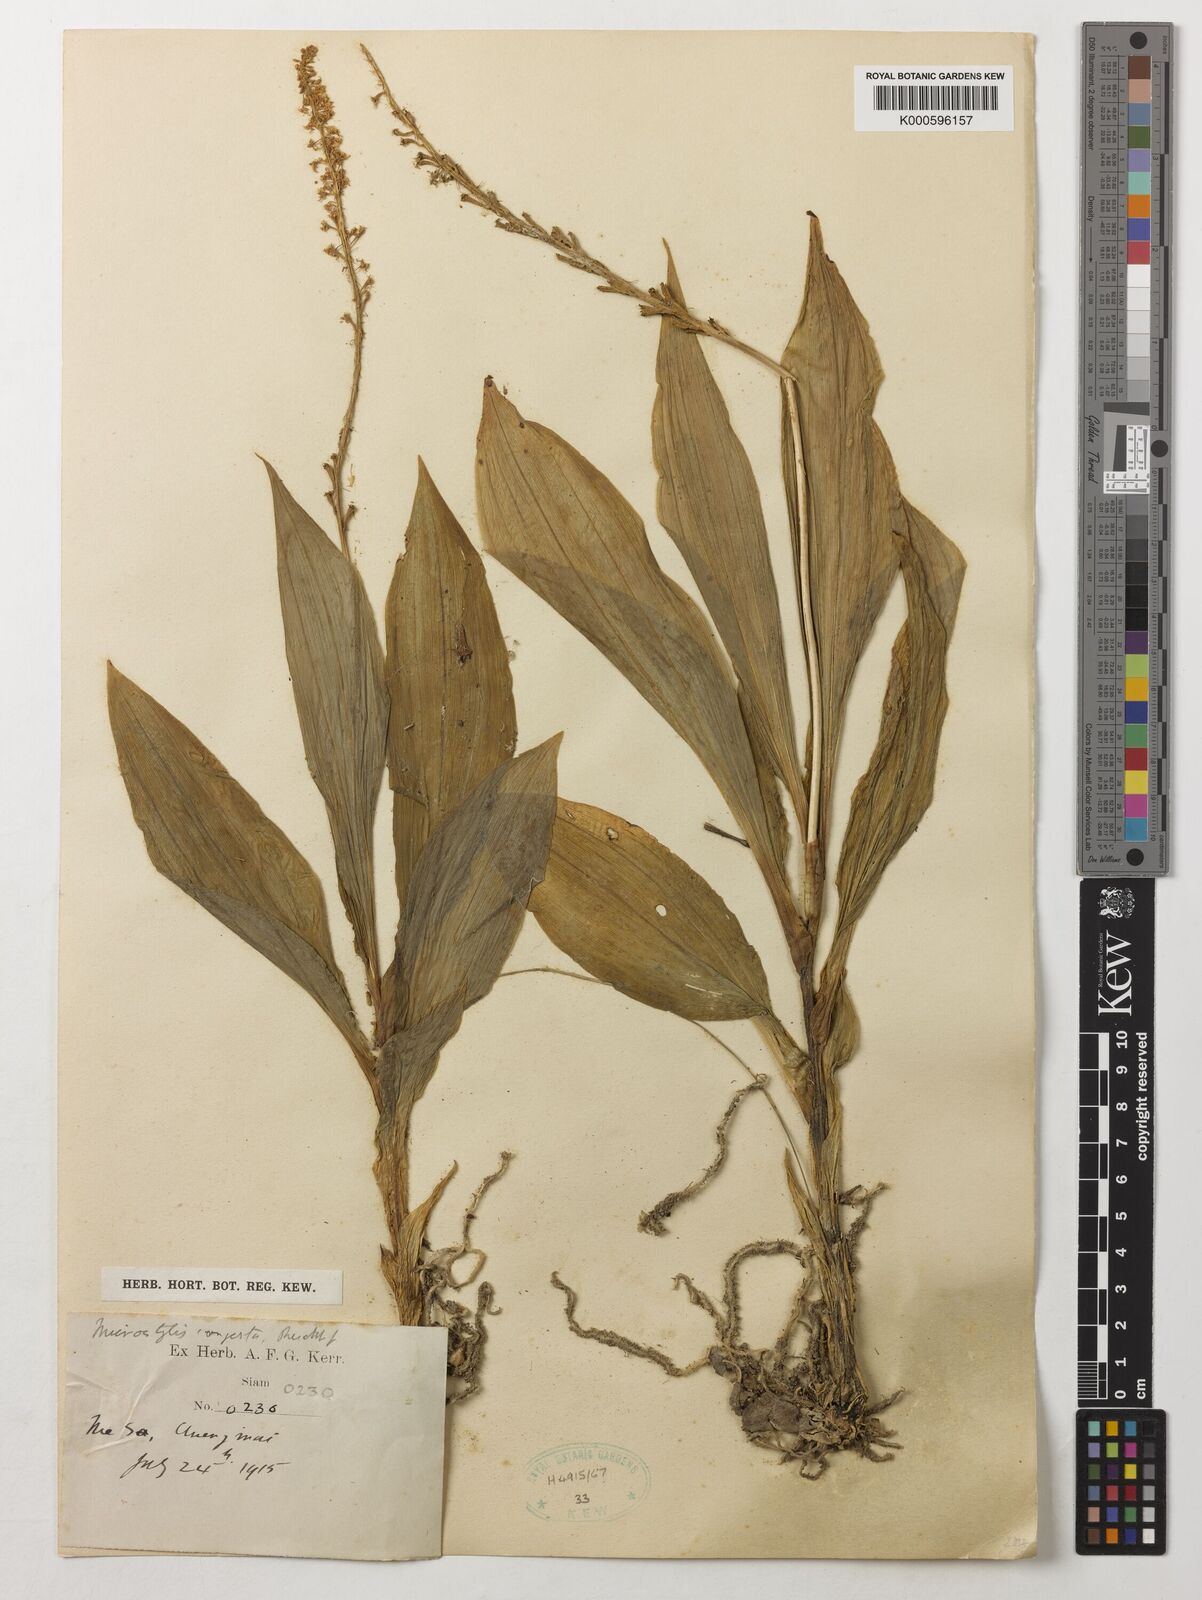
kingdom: Plantae
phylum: Tracheophyta
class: Liliopsida
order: Asparagales
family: Orchidaceae
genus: Dienia
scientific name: Dienia ophrydis
